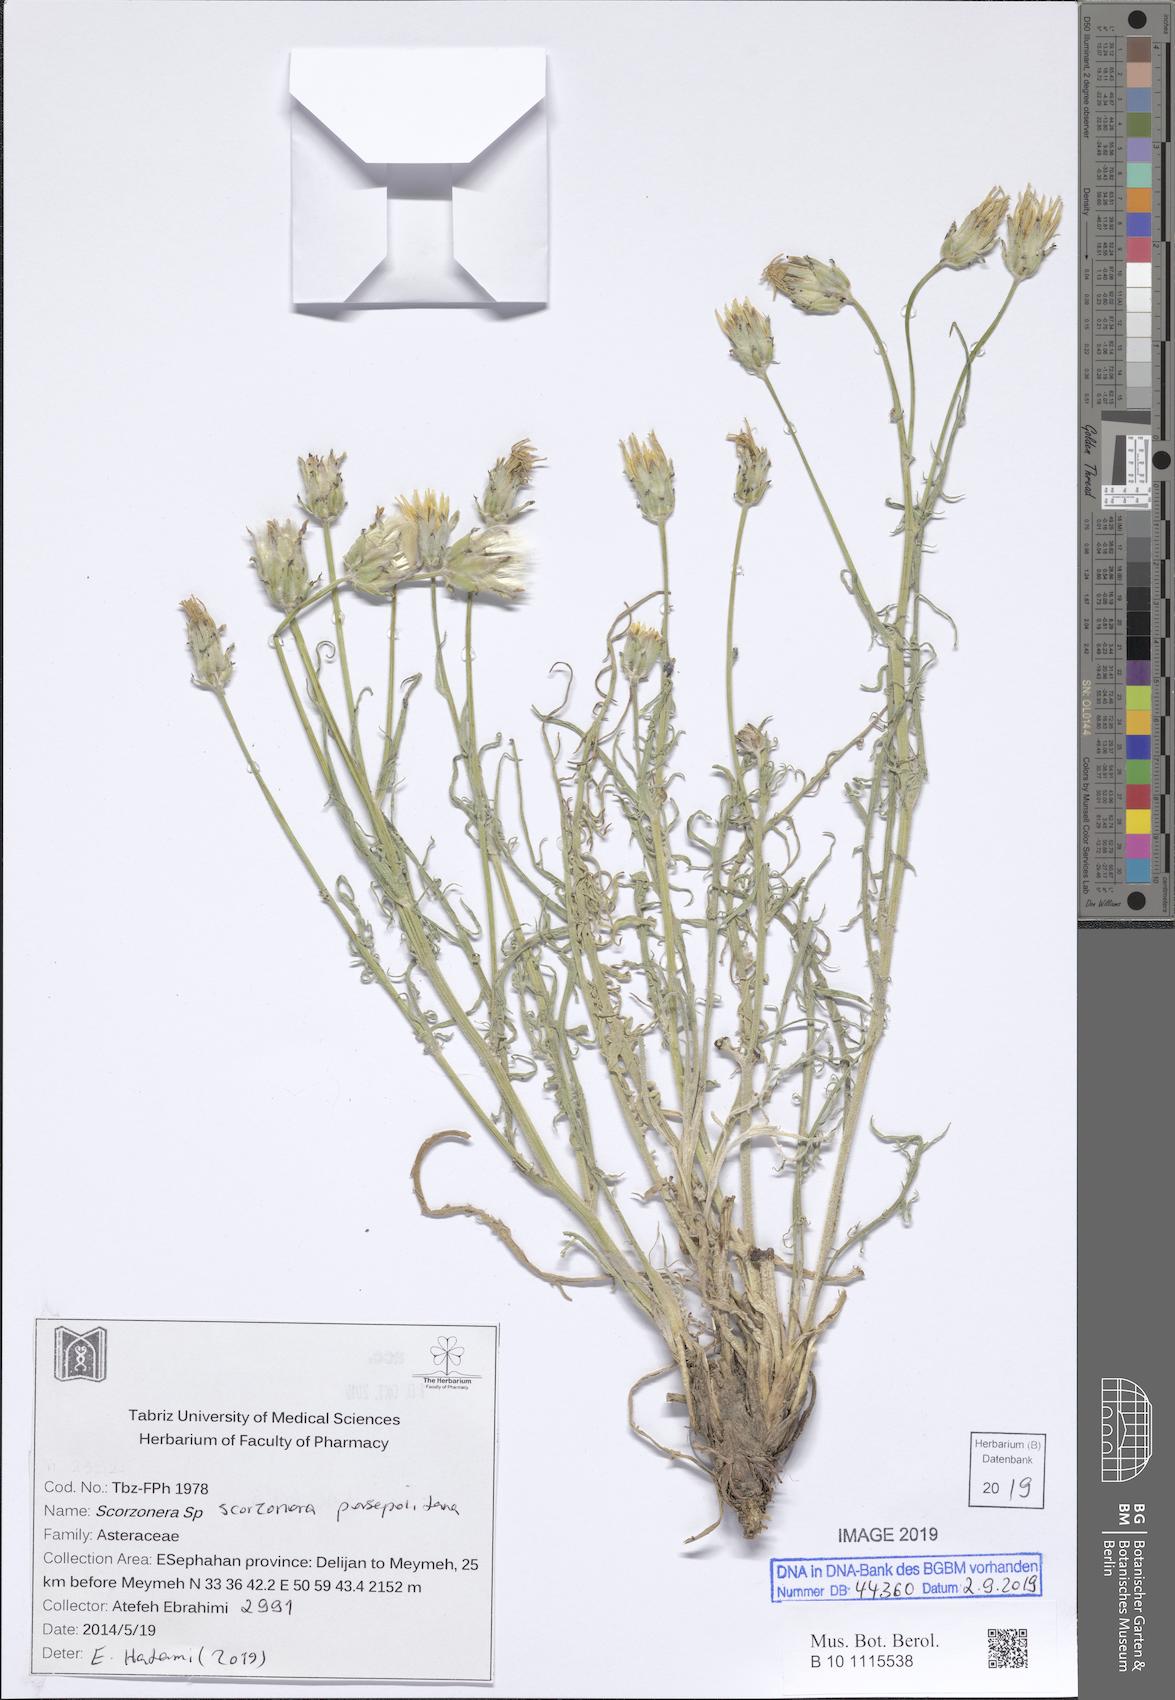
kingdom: Plantae
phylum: Tracheophyta
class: Magnoliopsida
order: Asterales
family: Asteraceae
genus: Scorzonera
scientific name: Scorzonera persepolitana
